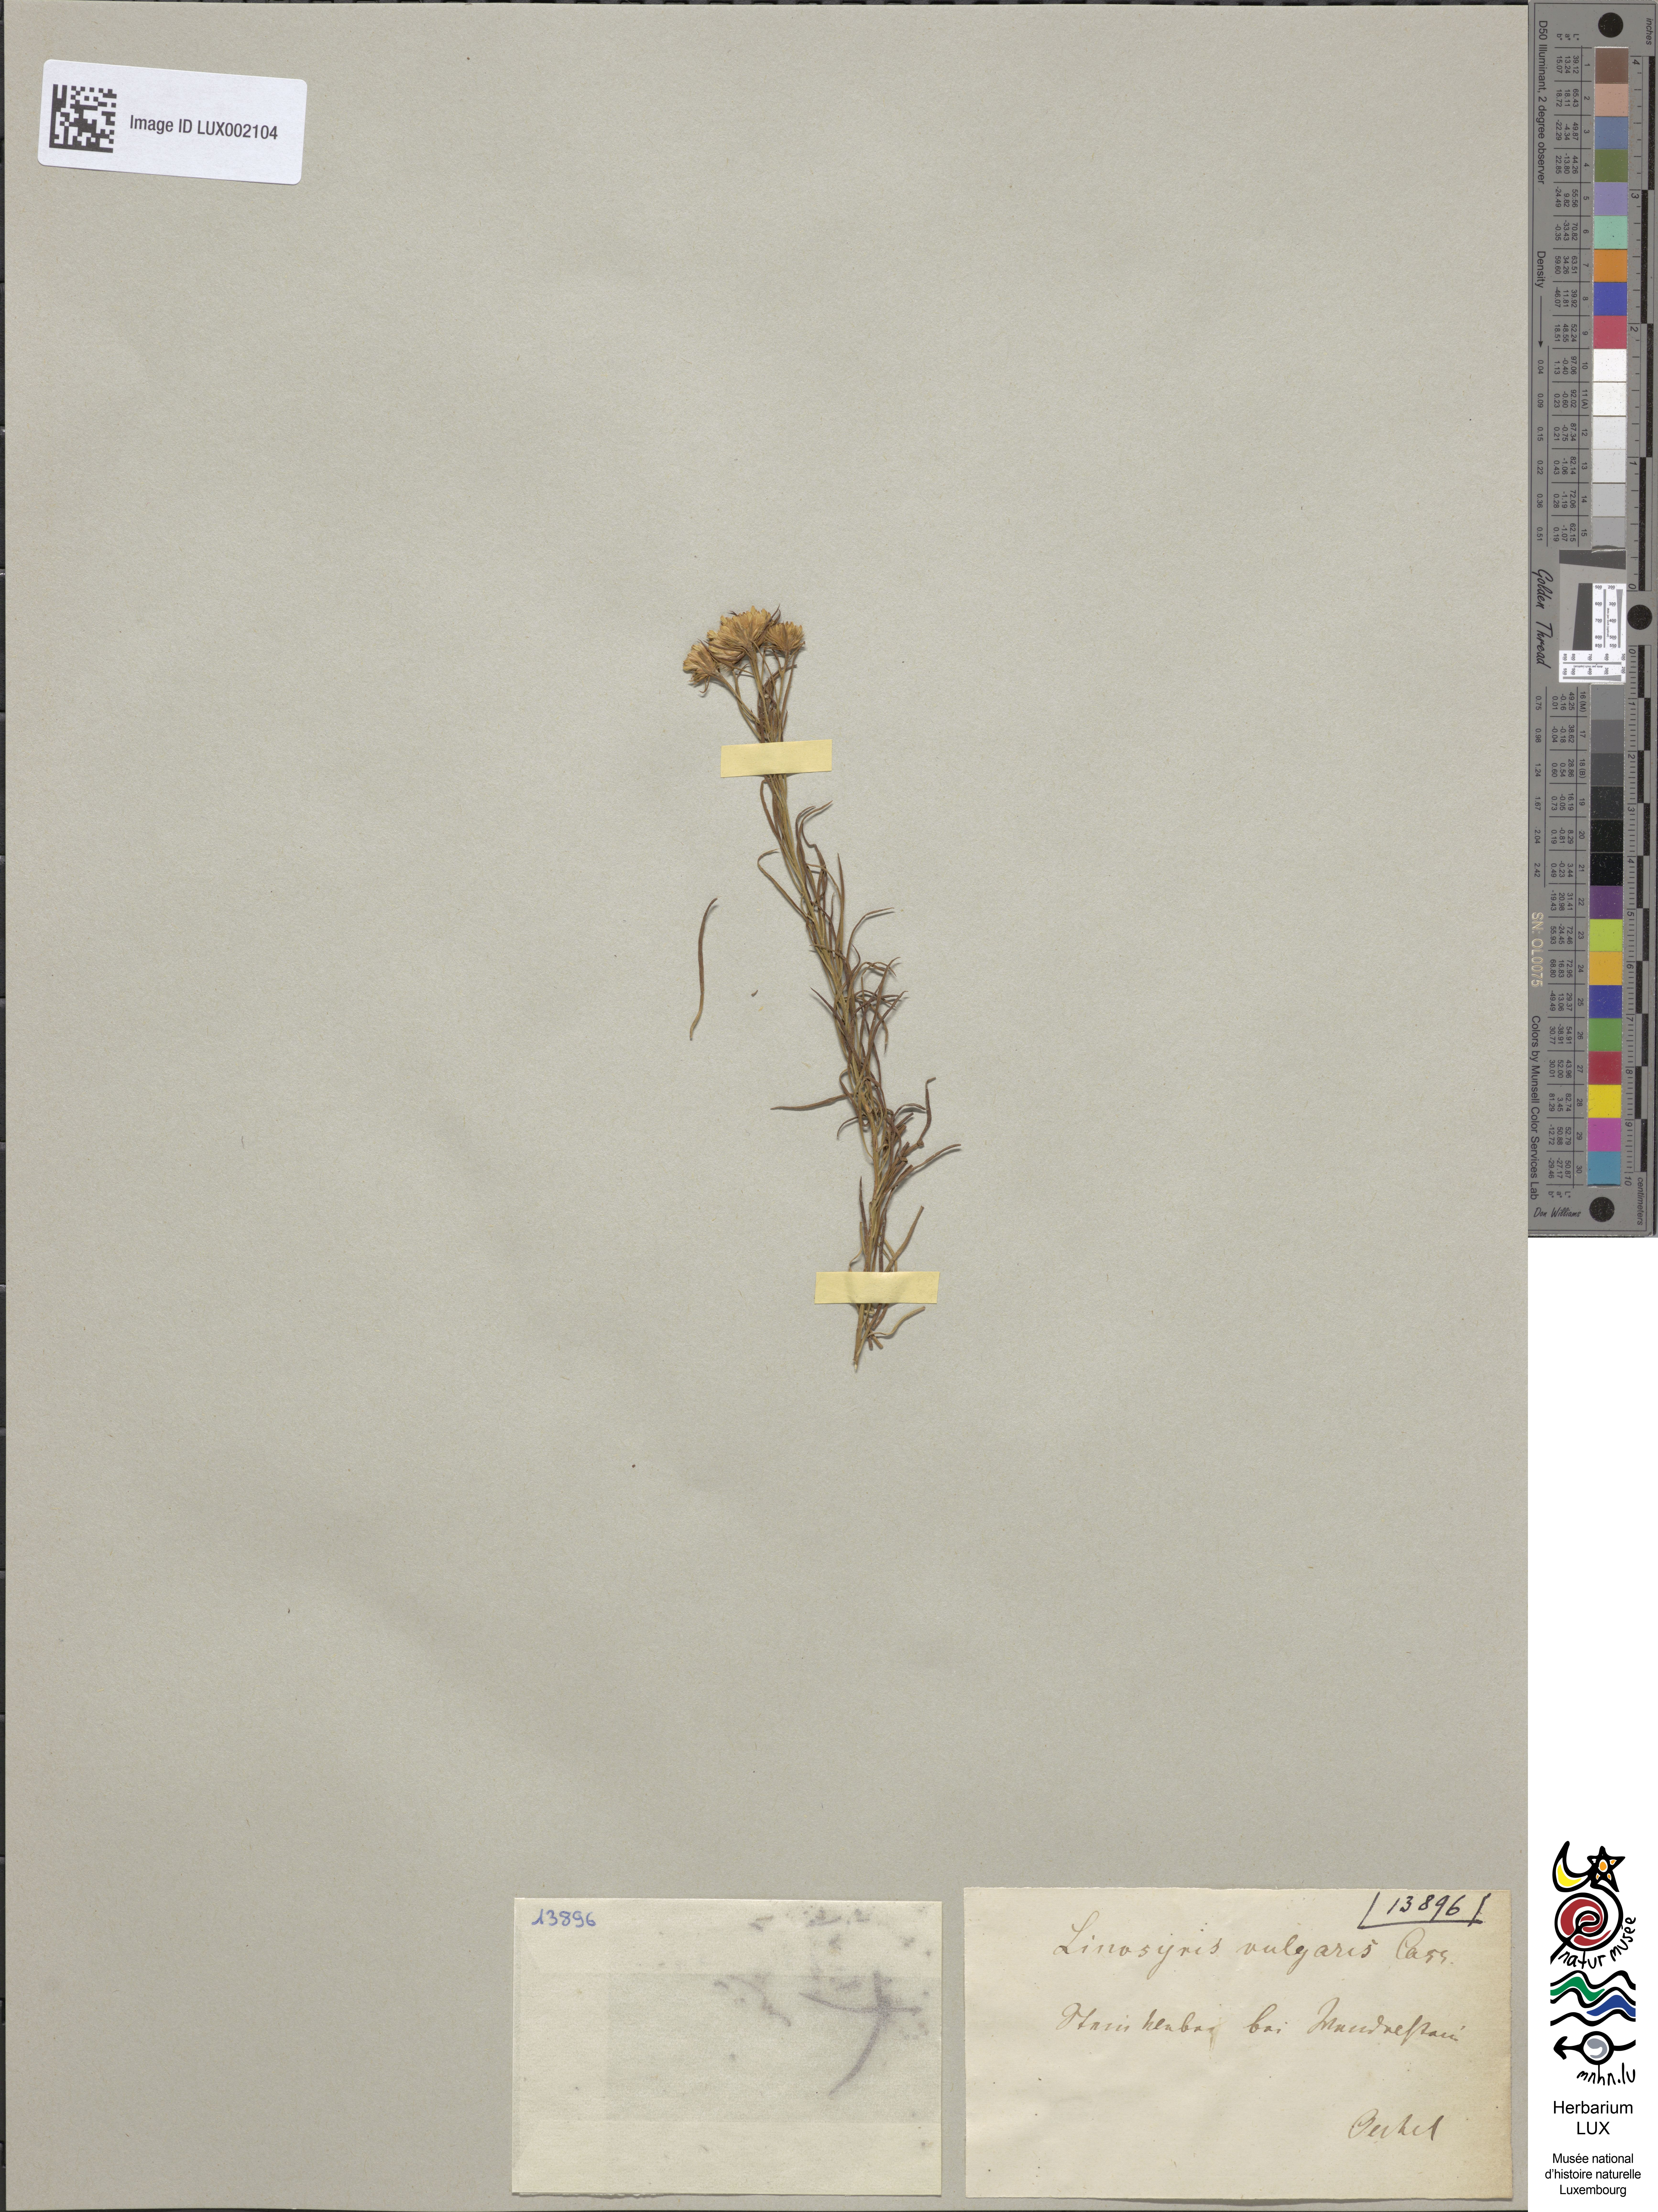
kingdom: Plantae
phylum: Tracheophyta
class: Magnoliopsida
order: Asterales
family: Asteraceae
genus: Galatella
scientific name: Galatella linosyris
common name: Goldilocks aster
